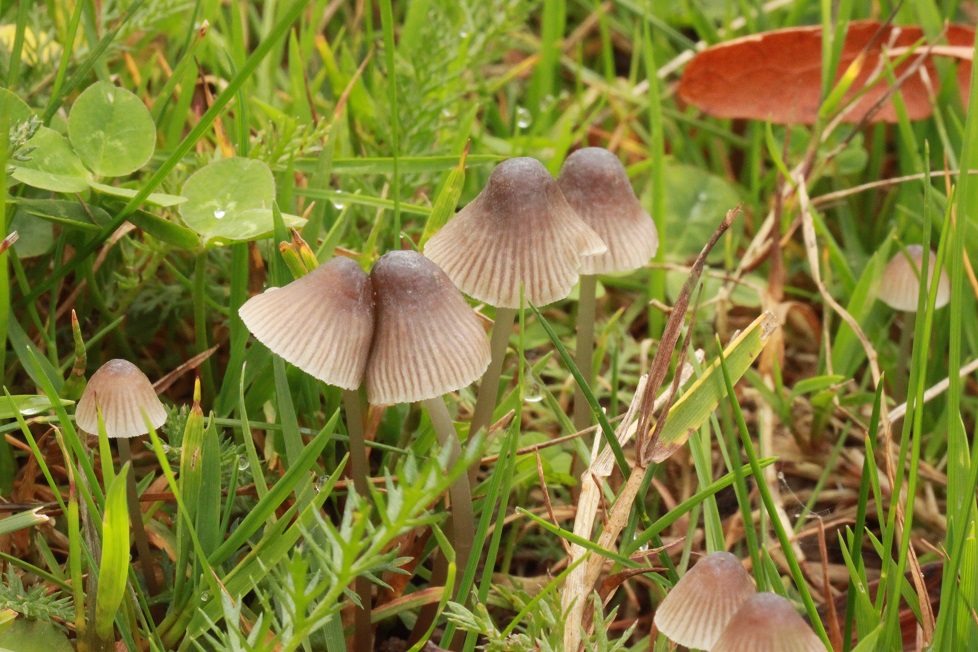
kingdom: Fungi
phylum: Basidiomycota
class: Agaricomycetes
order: Agaricales
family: Mycenaceae
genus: Mycena
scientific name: Mycena aetites
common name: plæne-huesvamp
